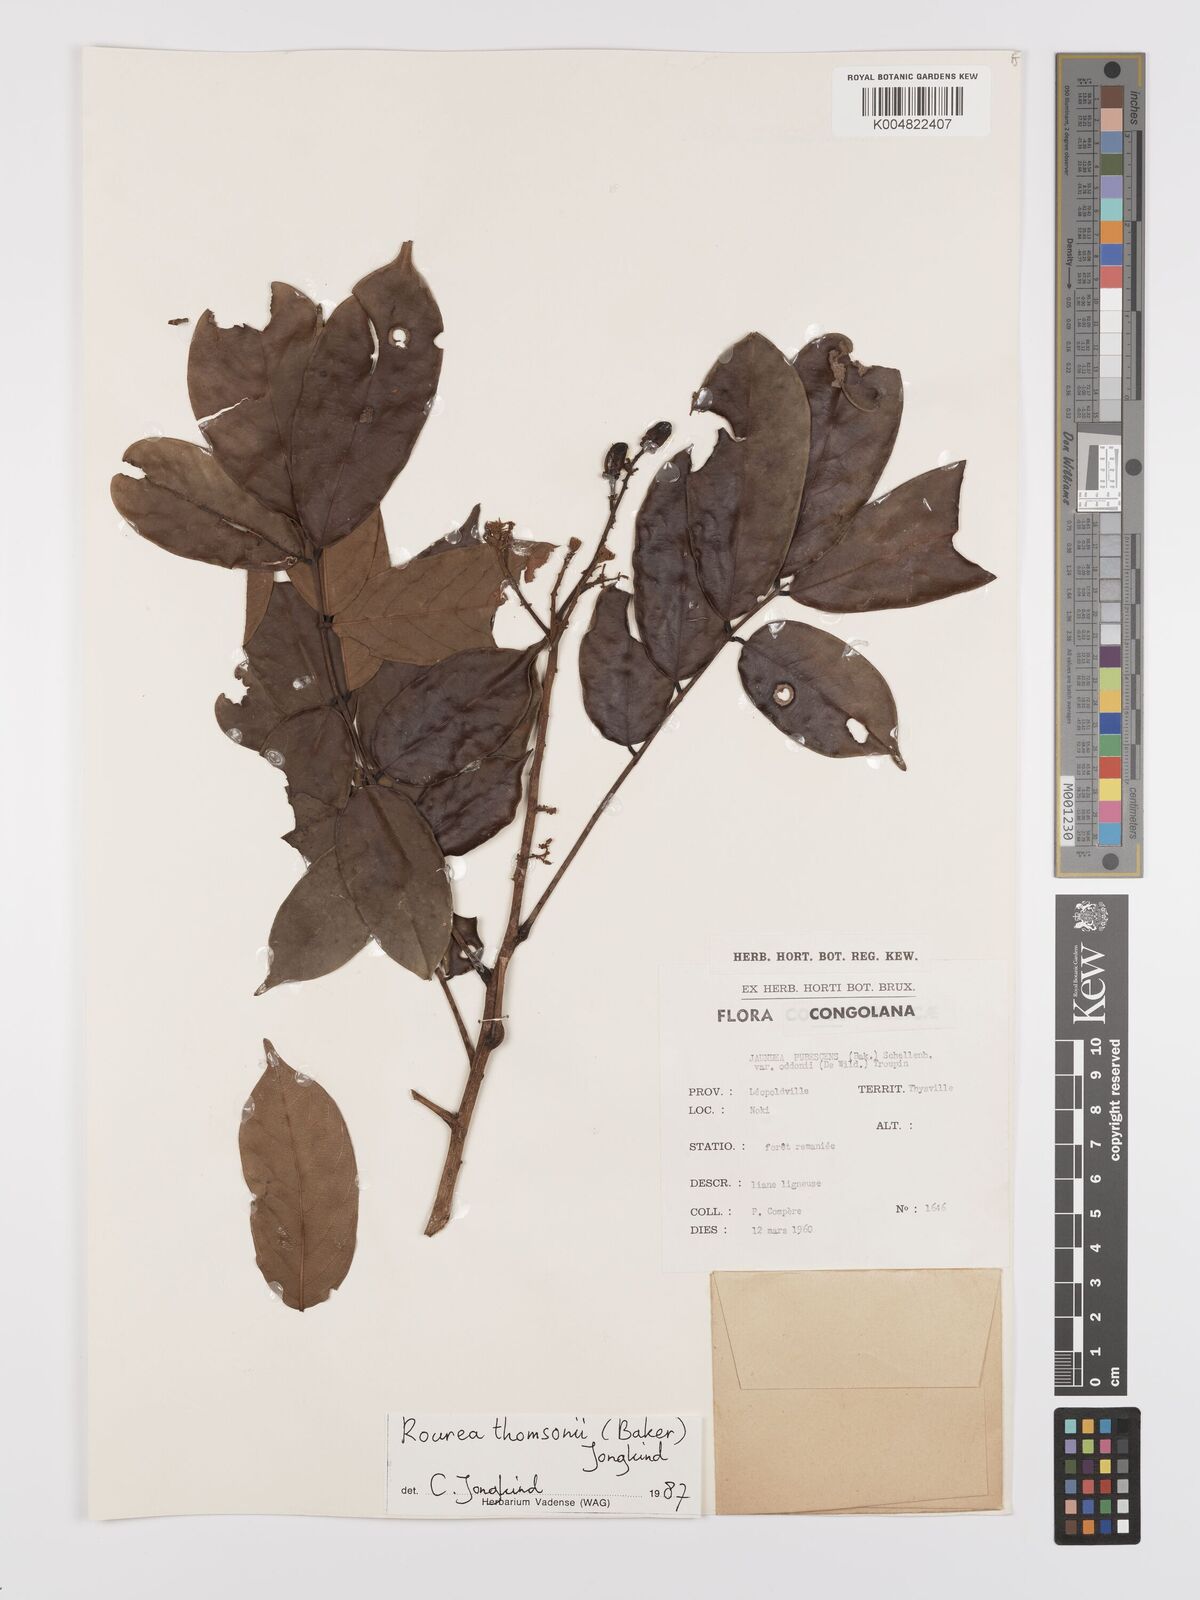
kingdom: Plantae
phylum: Tracheophyta
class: Magnoliopsida
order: Oxalidales
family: Connaraceae
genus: Rourea
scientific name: Rourea pubescens
